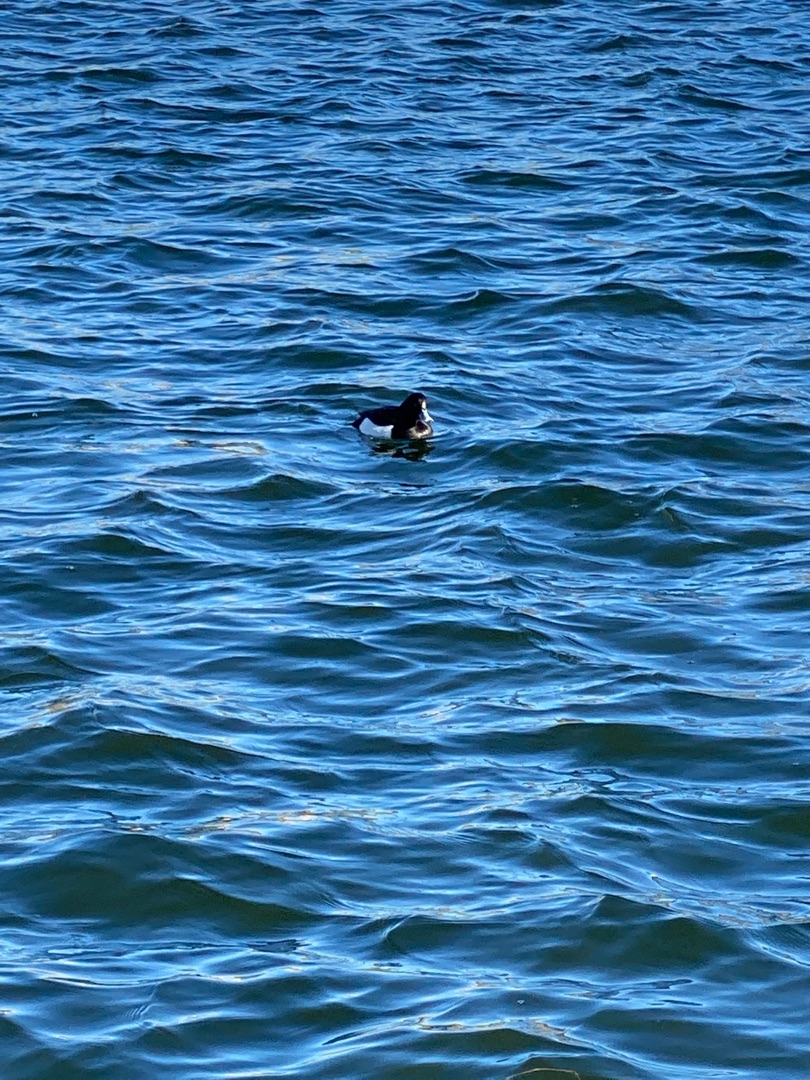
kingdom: Animalia
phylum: Chordata
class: Aves
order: Anseriformes
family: Anatidae
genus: Aythya
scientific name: Aythya fuligula
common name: Troldand
